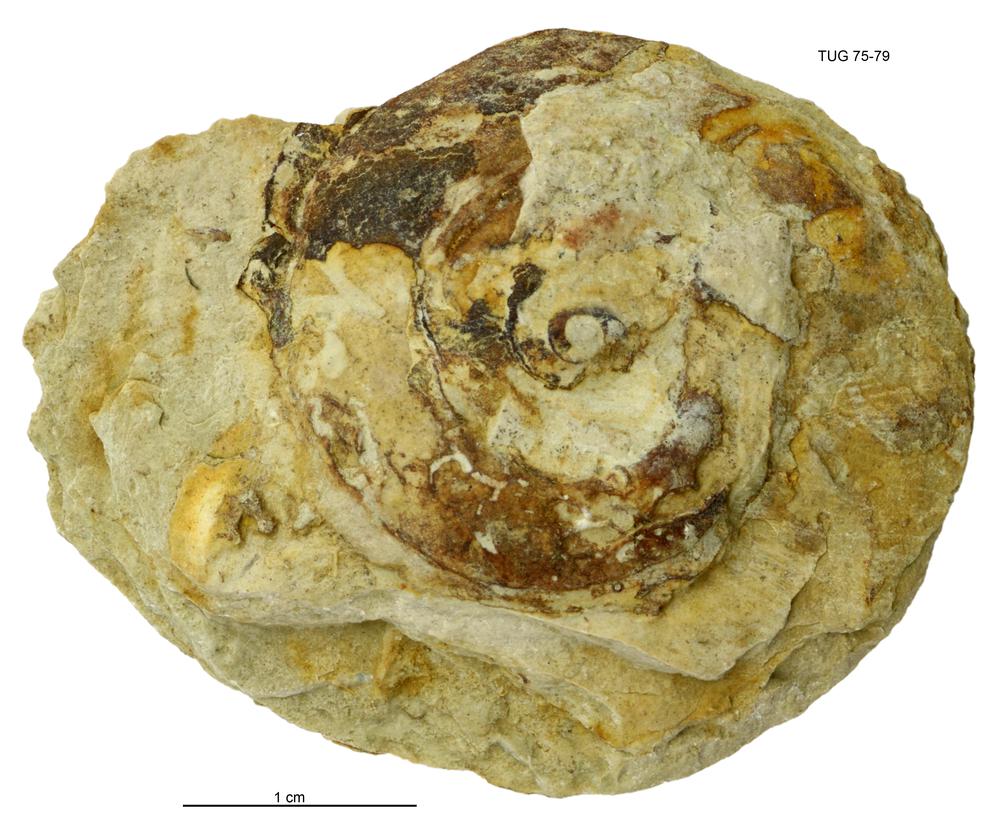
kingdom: Animalia
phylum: Mollusca
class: Gastropoda
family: Lesueurillidae
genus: Pararaphistoma
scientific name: Pararaphistoma
